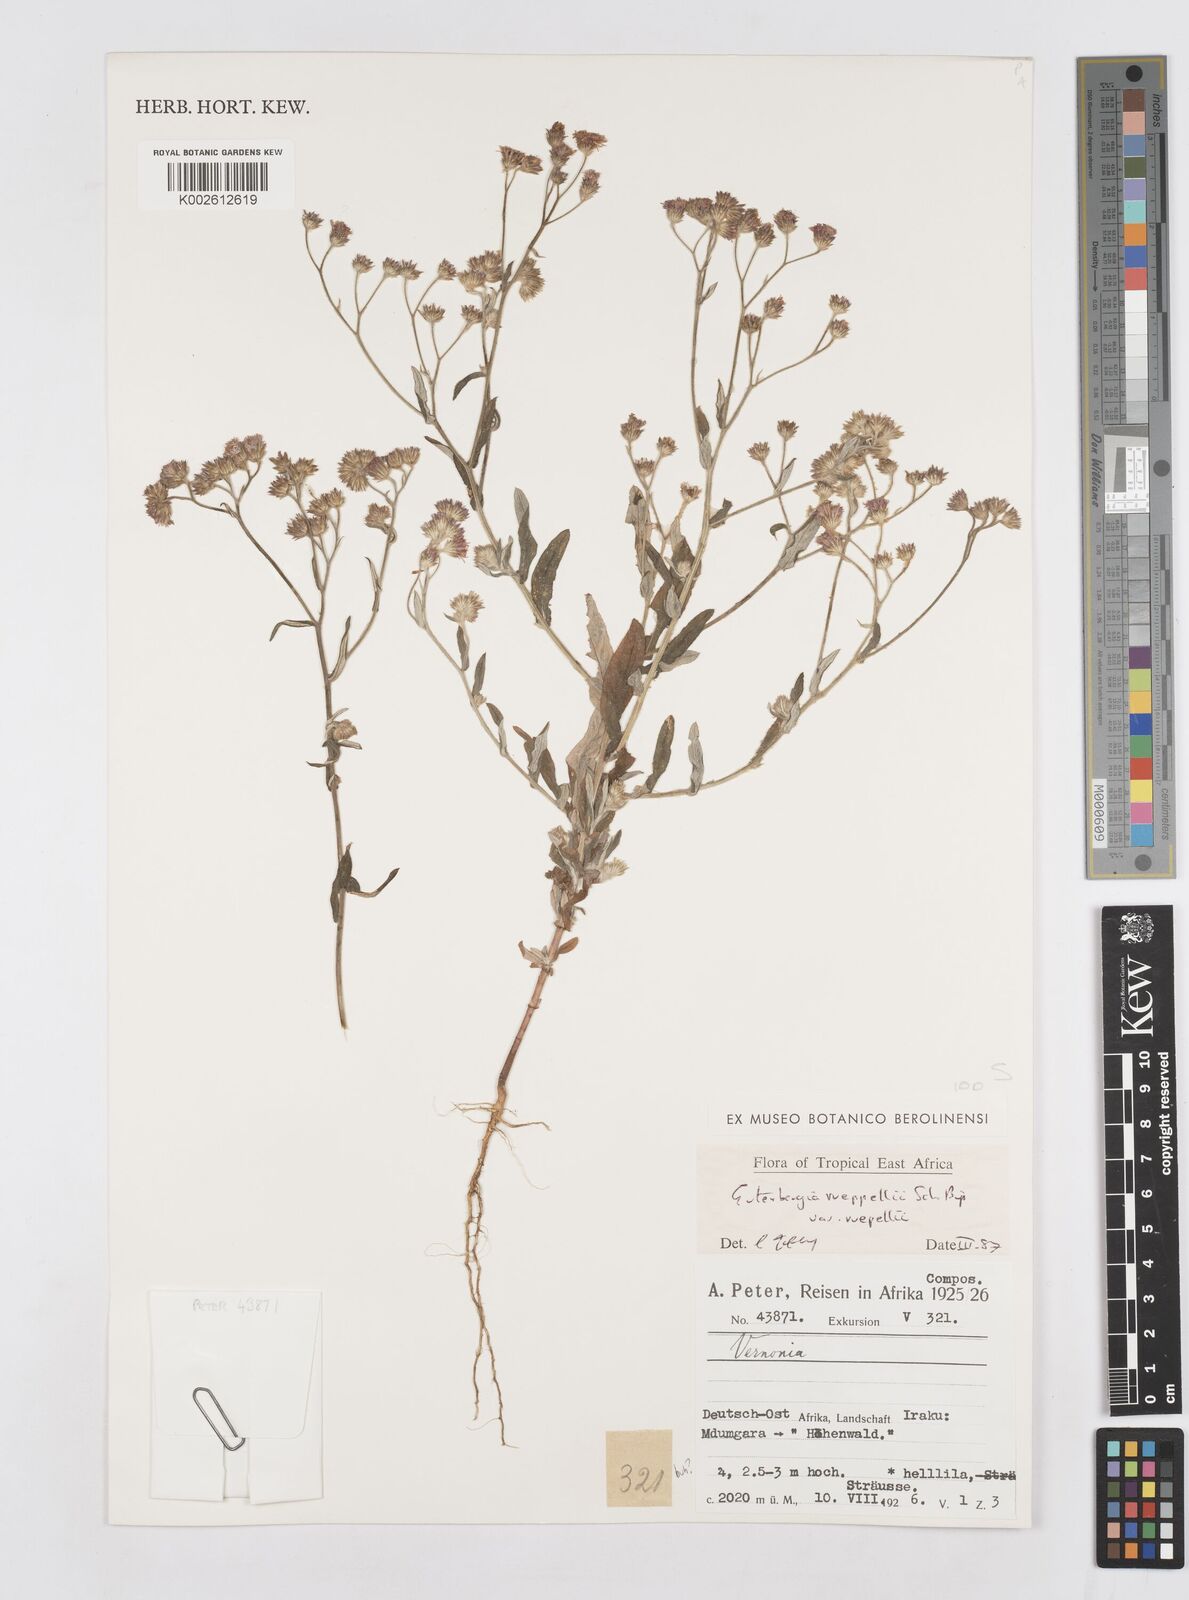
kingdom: Plantae
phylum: Tracheophyta
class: Magnoliopsida
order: Asterales
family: Asteraceae
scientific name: Asteraceae
